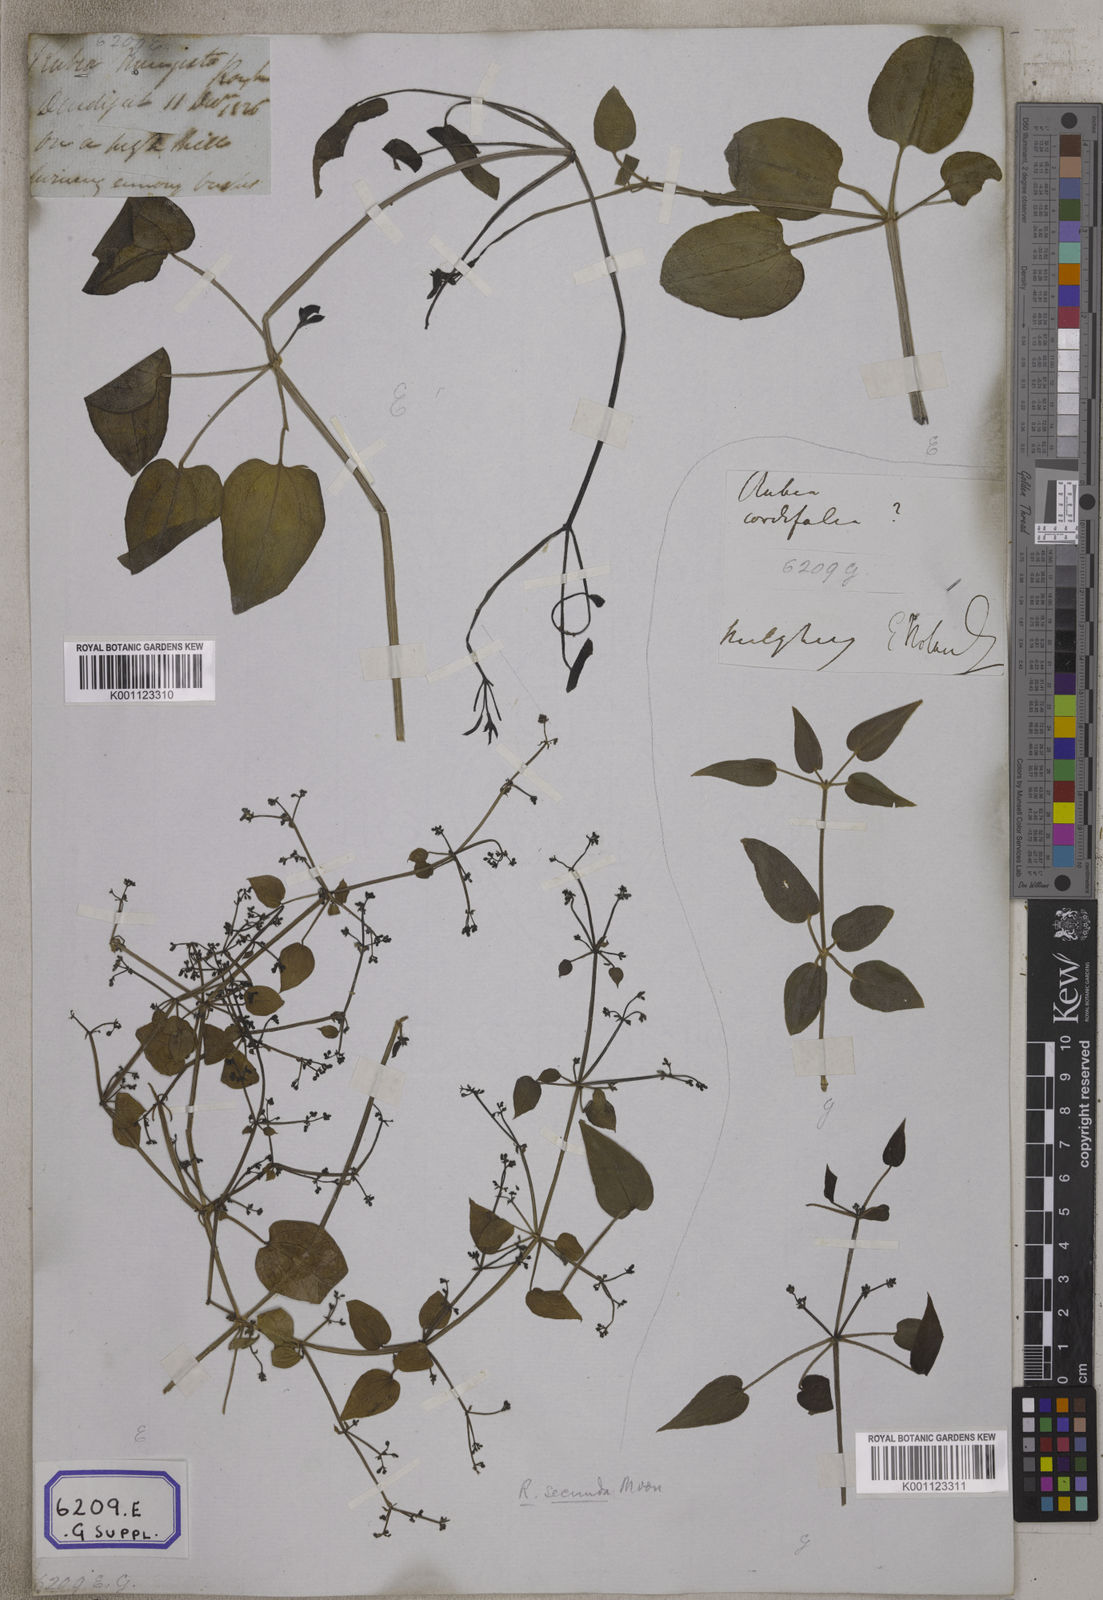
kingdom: Plantae
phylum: Tracheophyta
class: Magnoliopsida
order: Gentianales
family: Rubiaceae
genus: Rubia
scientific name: Rubia cordifolia
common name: Indian madder
